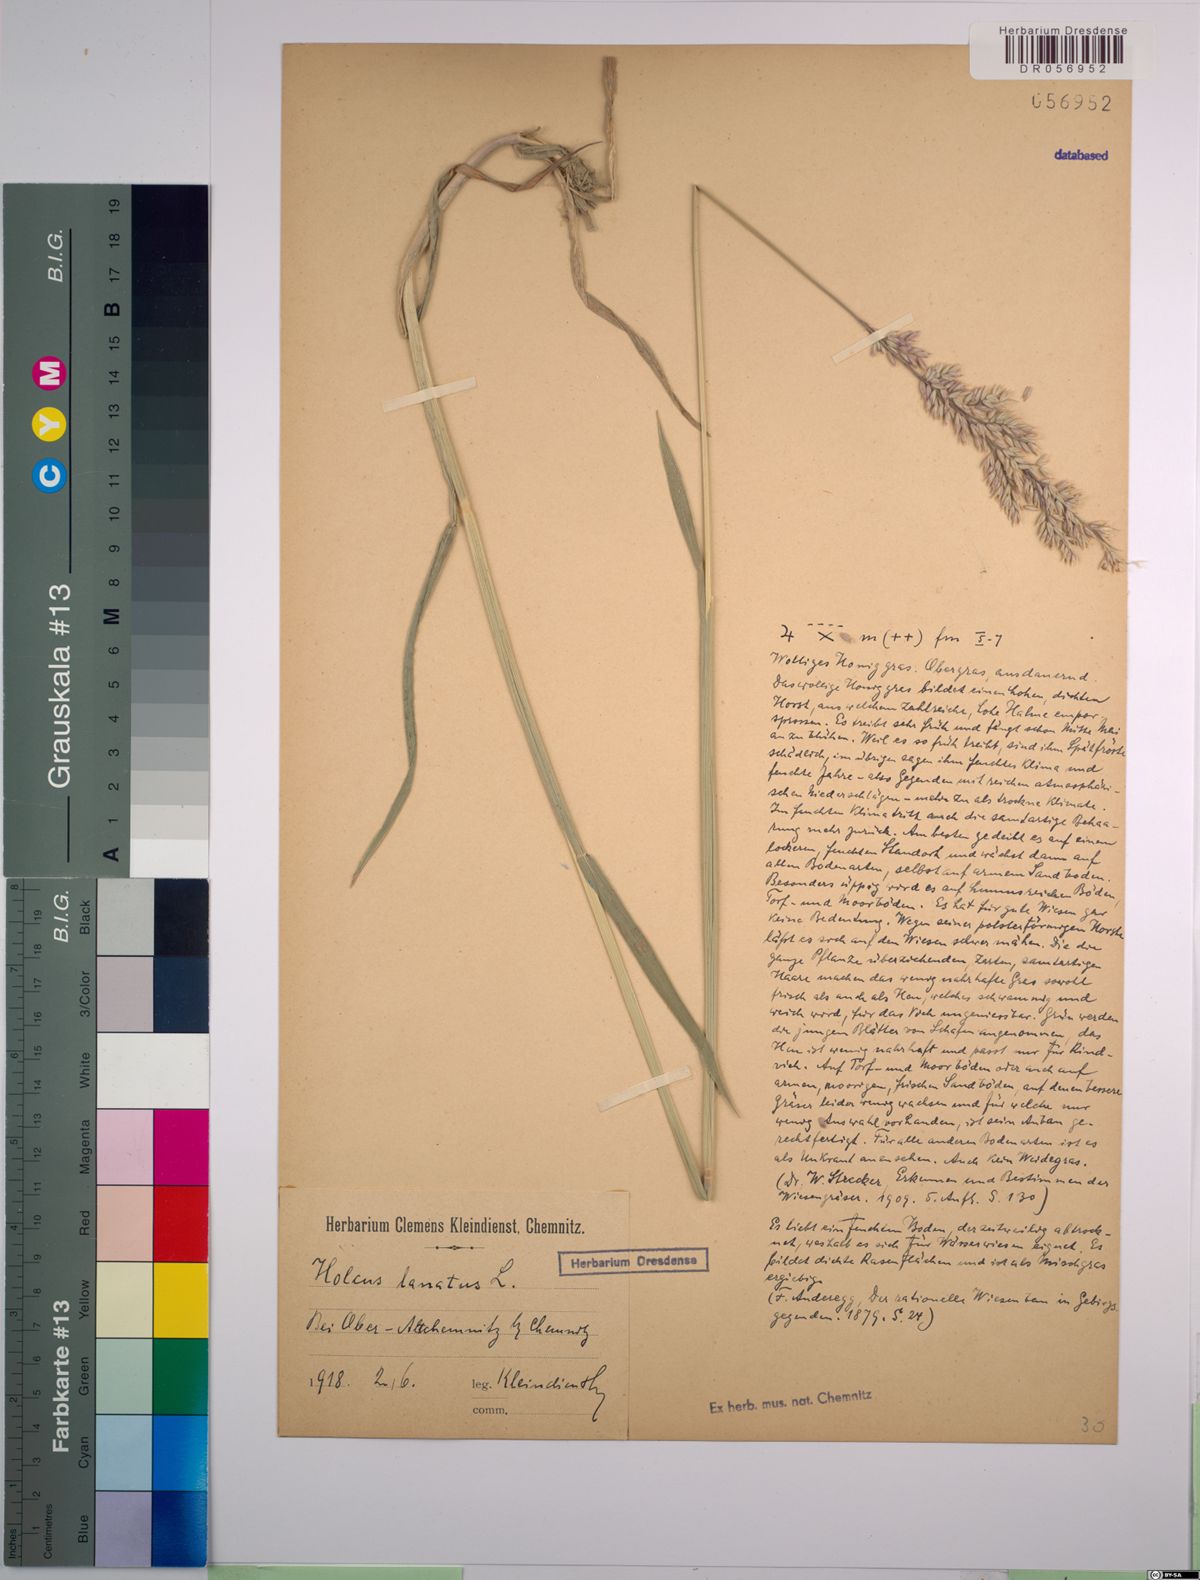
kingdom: Plantae
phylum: Tracheophyta
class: Liliopsida
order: Poales
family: Poaceae
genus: Holcus
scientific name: Holcus lanatus
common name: Yorkshire-fog
